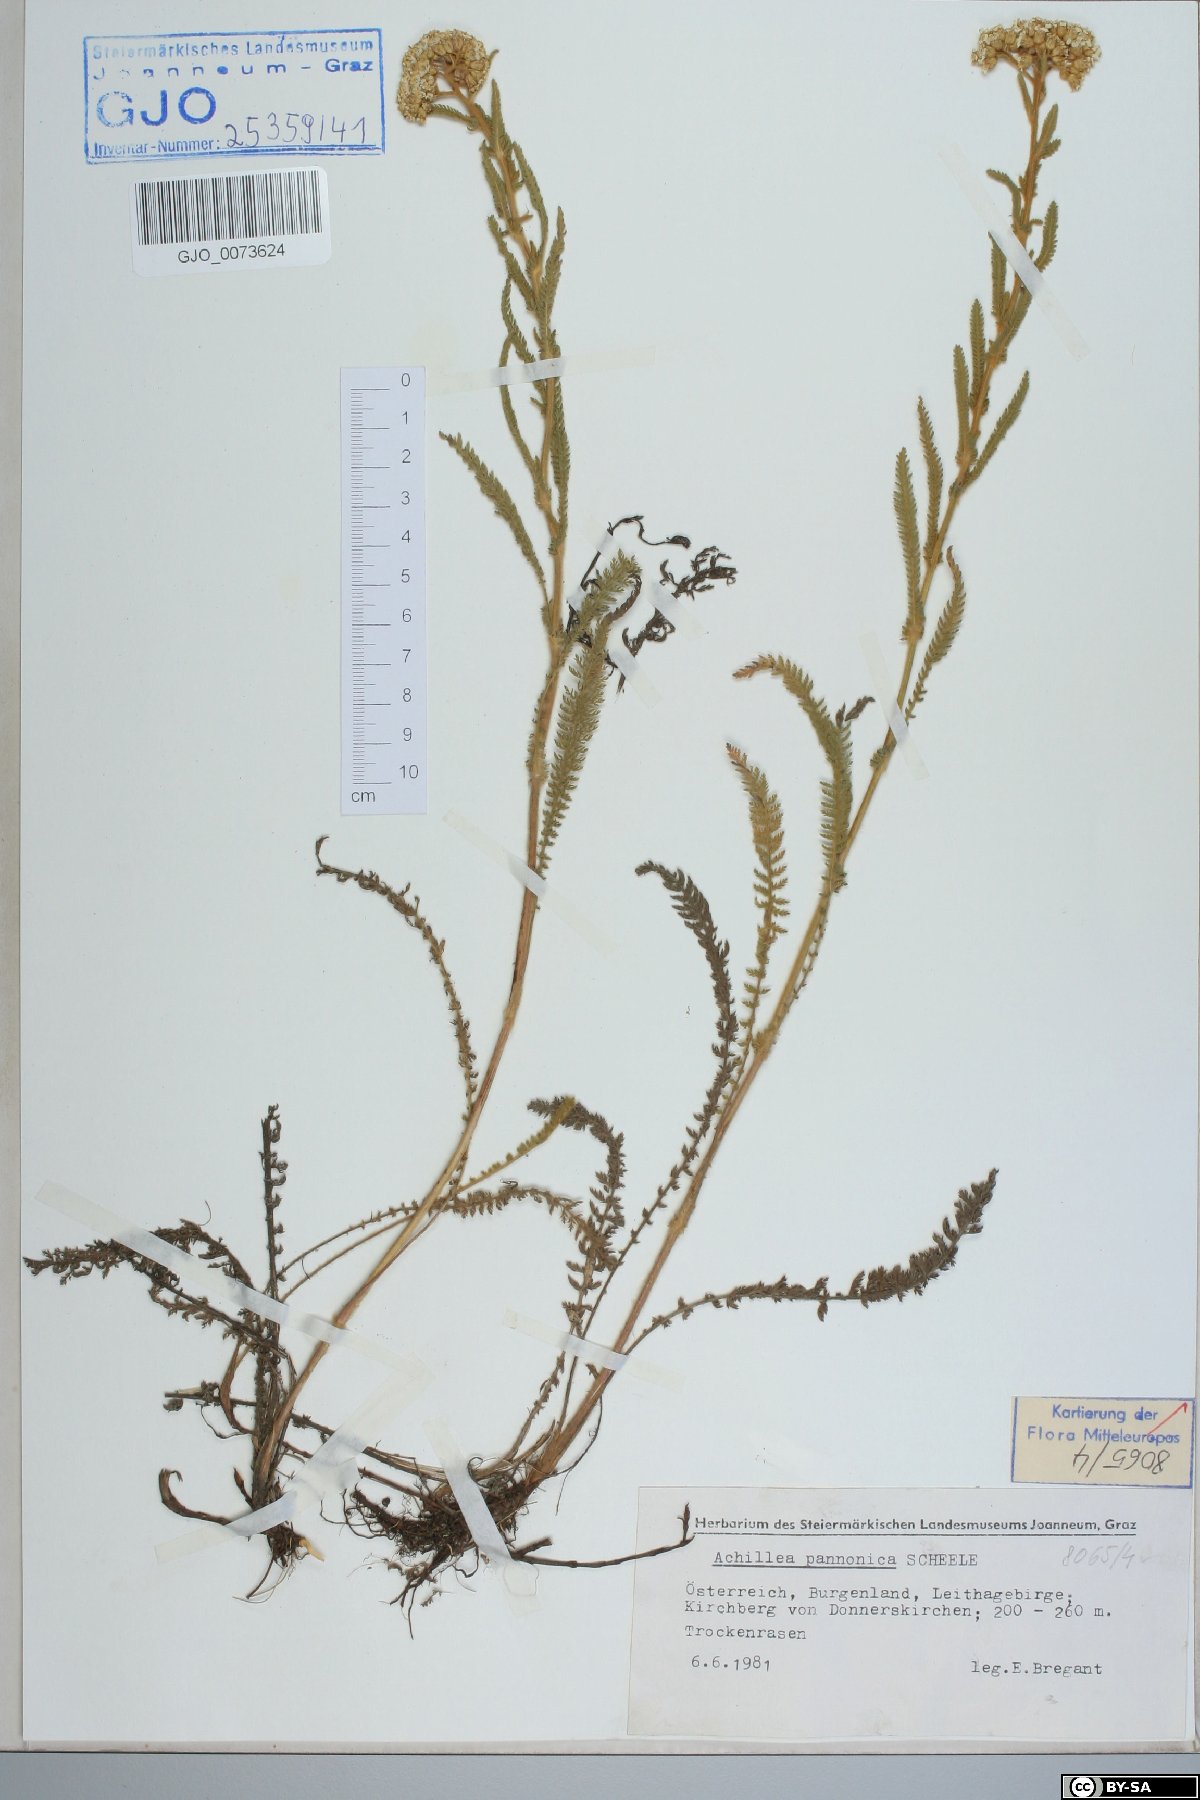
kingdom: Plantae
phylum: Tracheophyta
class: Magnoliopsida
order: Asterales
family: Asteraceae
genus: Achillea
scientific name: Achillea pannonica
